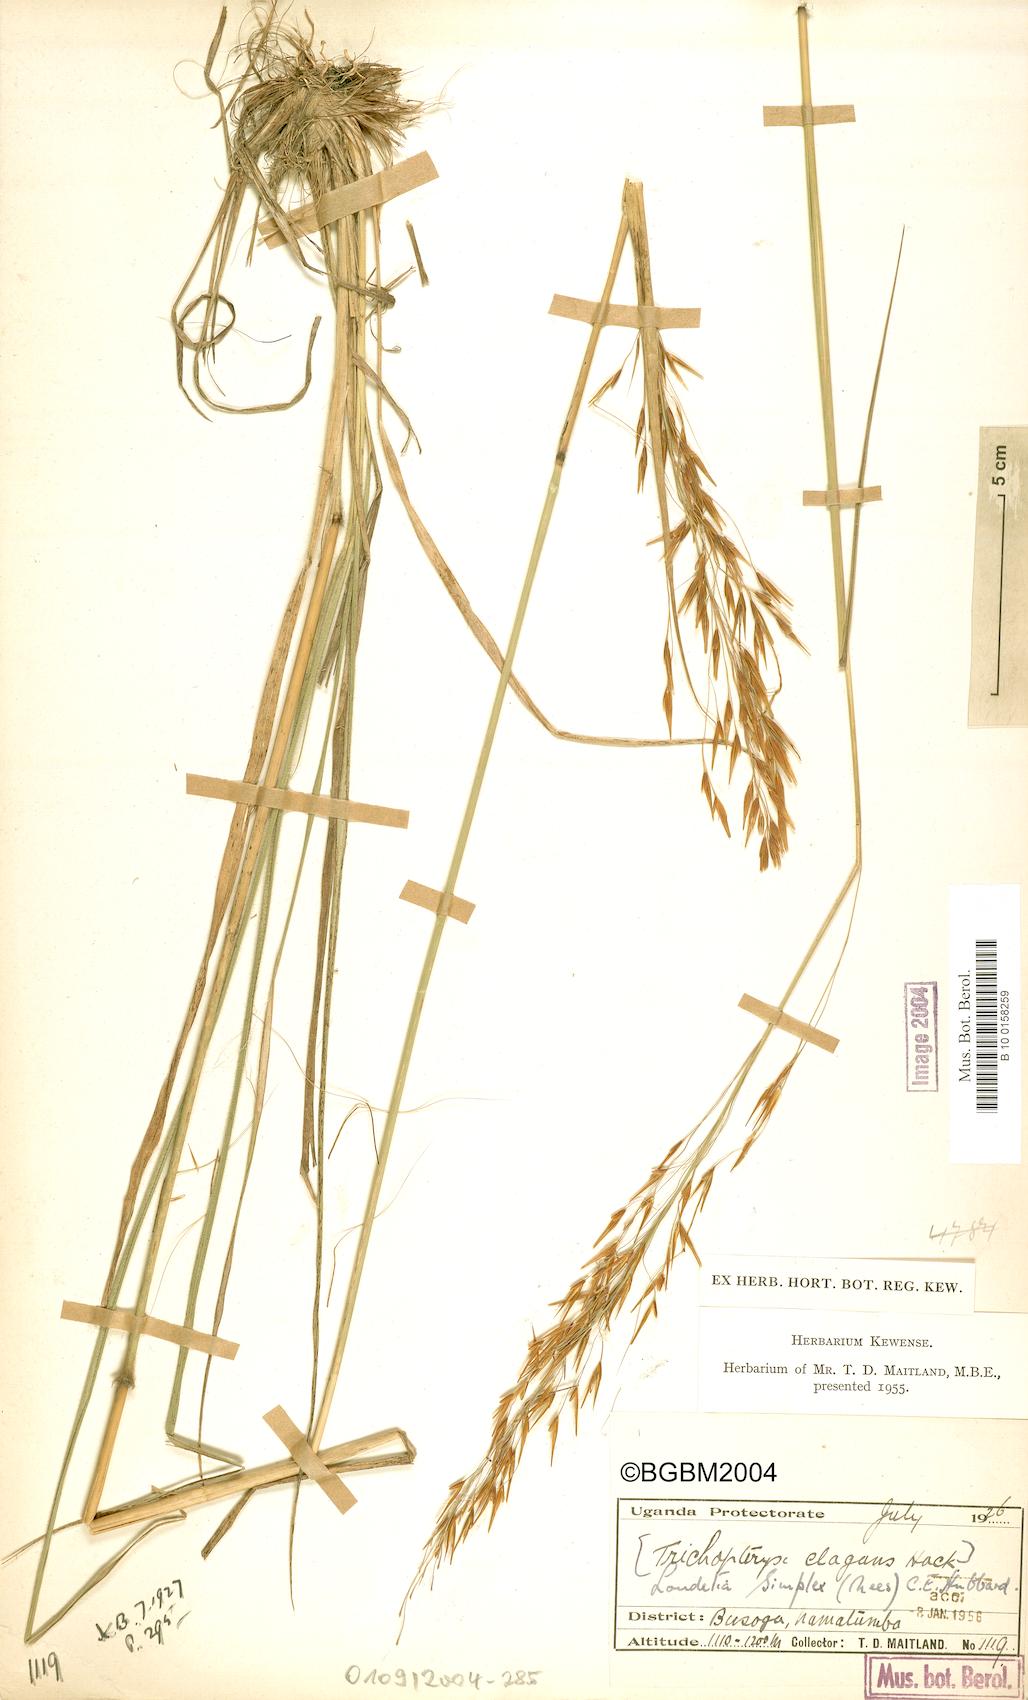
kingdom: Plantae
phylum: Tracheophyta
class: Liliopsida
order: Poales
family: Poaceae
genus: Loudetia
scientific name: Loudetia simplex
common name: Common russet grass
